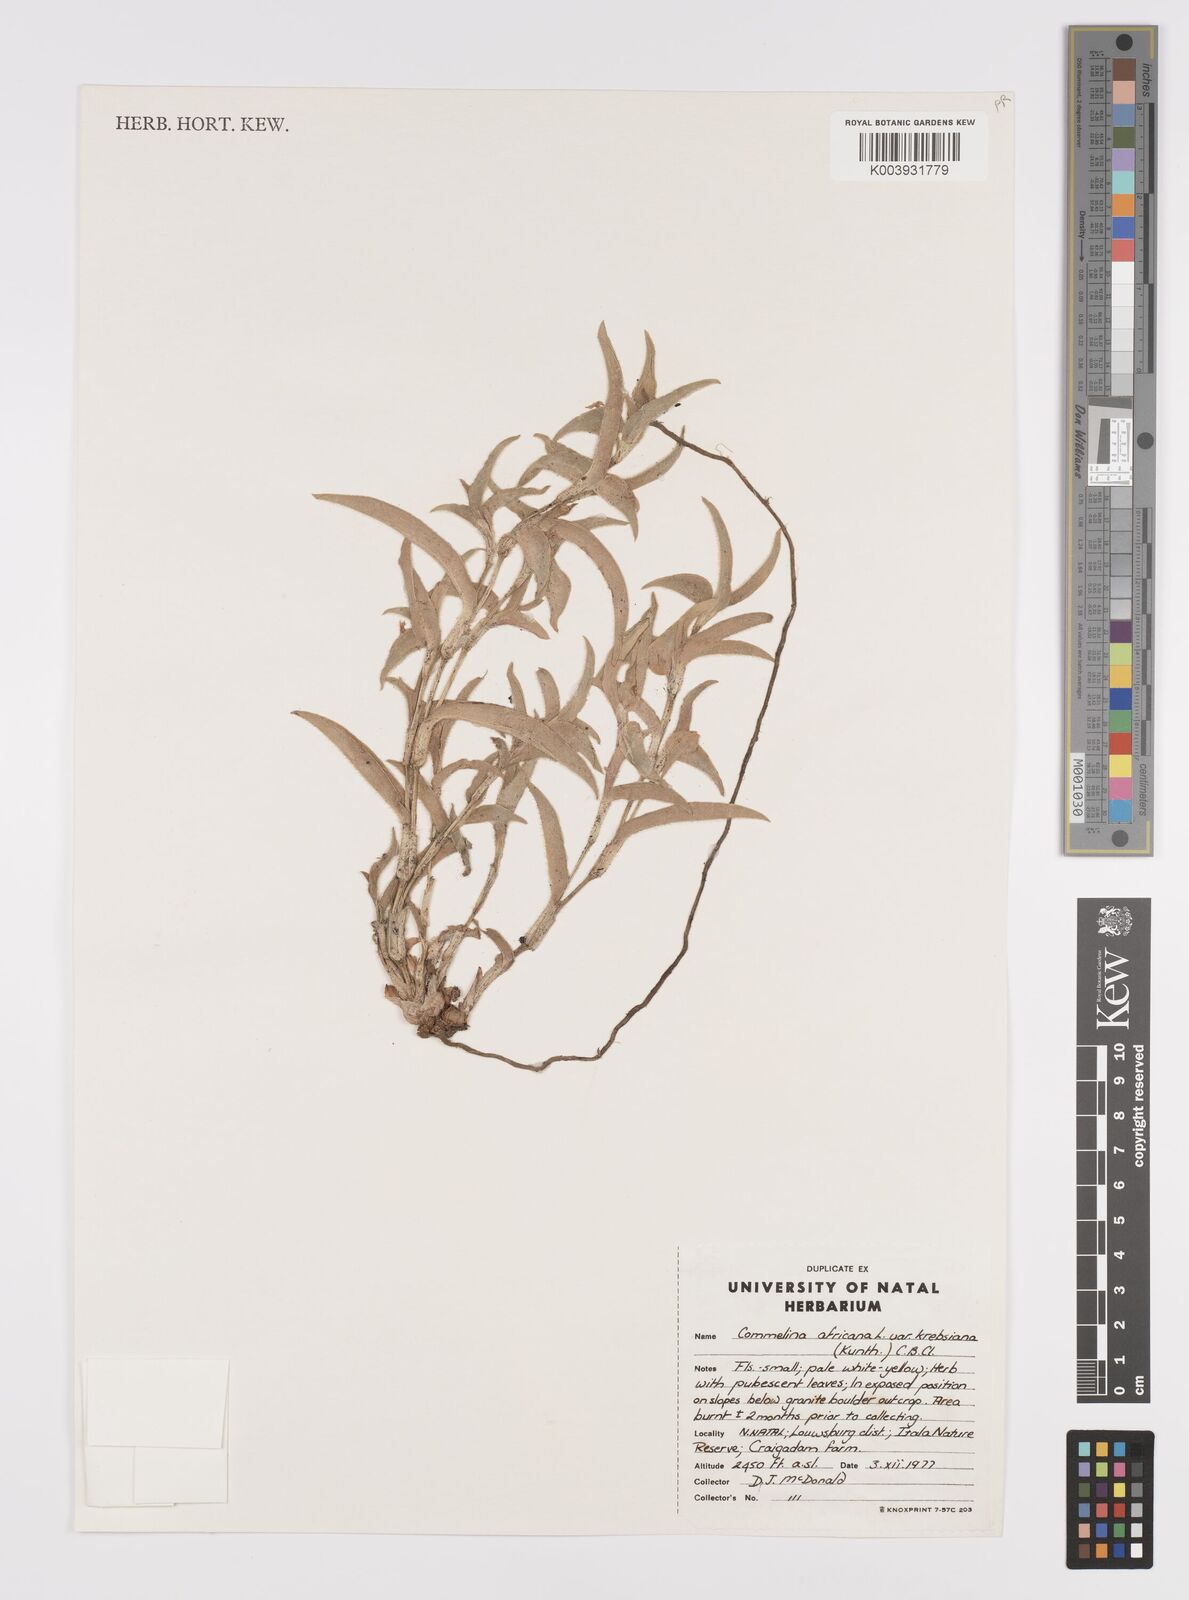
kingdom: Plantae
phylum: Tracheophyta
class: Liliopsida
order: Commelinales
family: Commelinaceae
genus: Commelina
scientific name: Commelina africana
